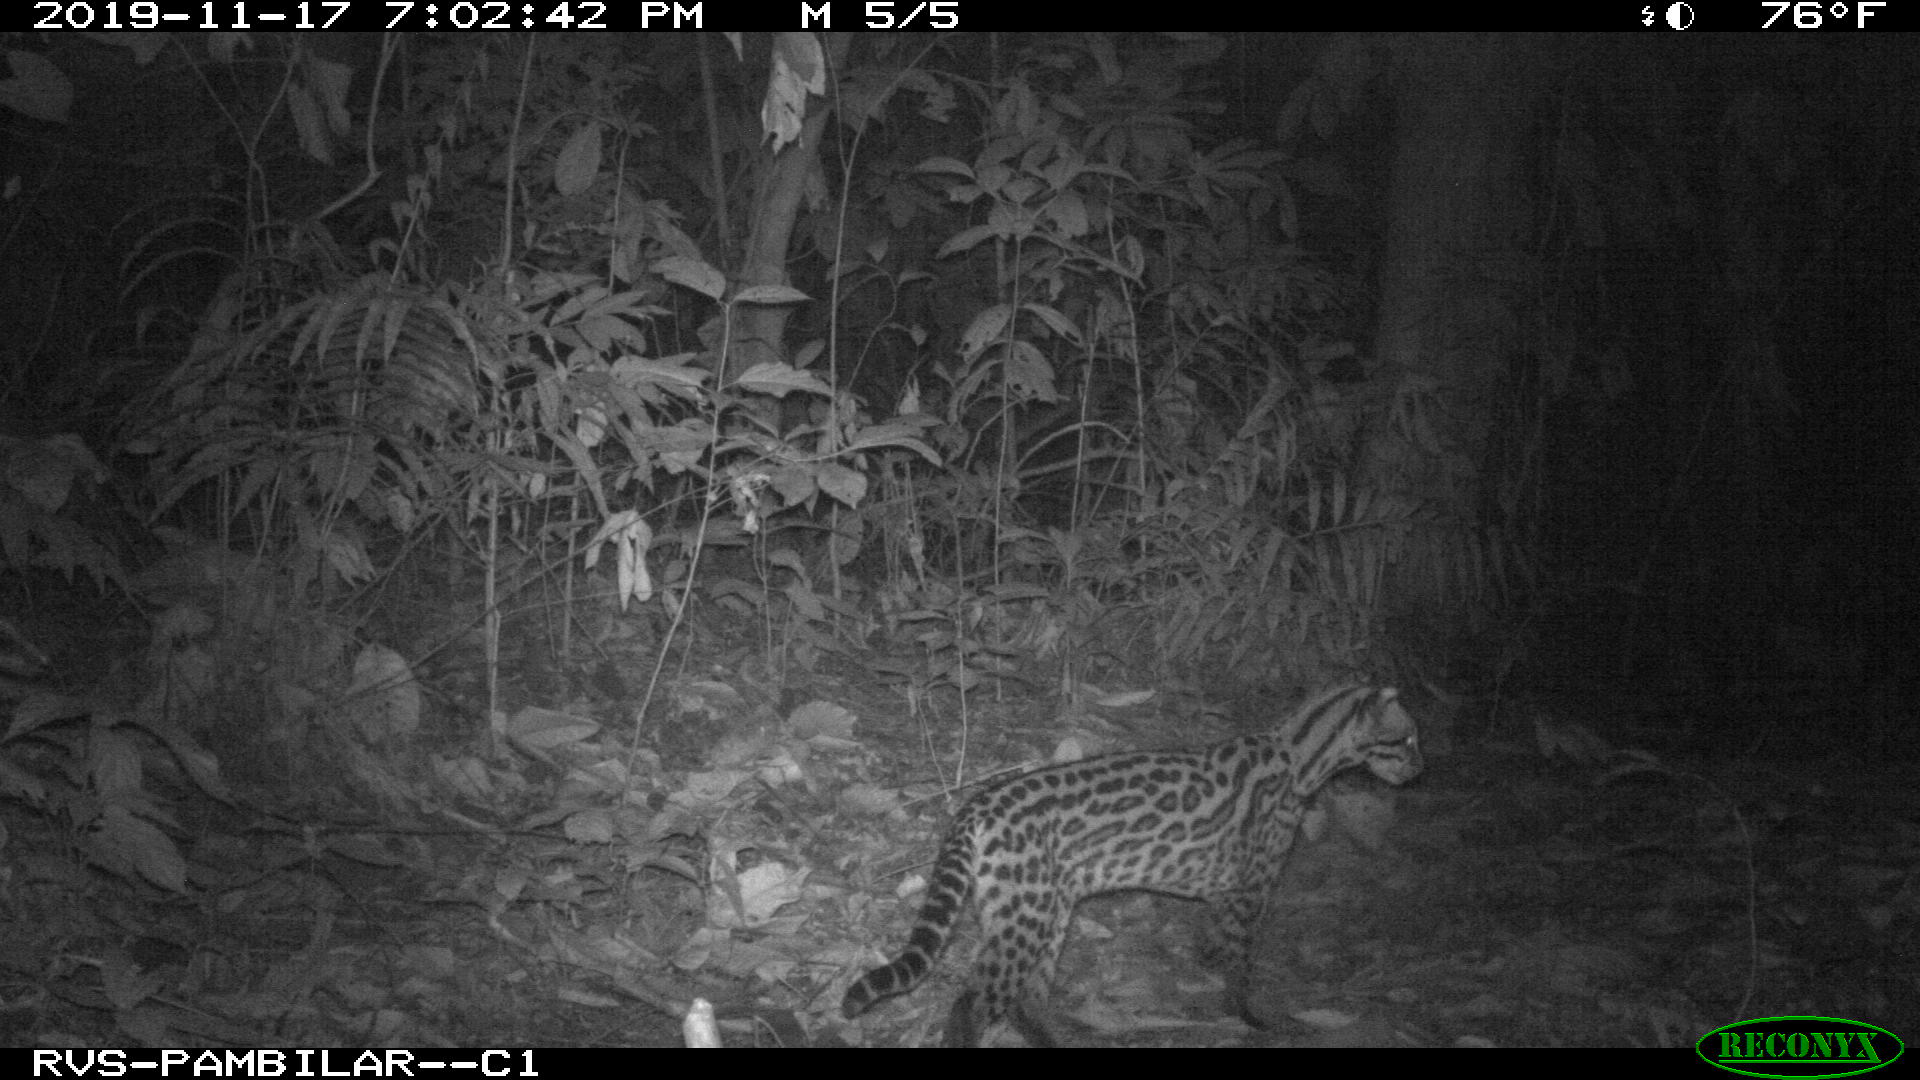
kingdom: Animalia
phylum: Chordata
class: Mammalia
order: Carnivora
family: Felidae
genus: Leopardus
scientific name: Leopardus pardalis
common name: Ocelot
